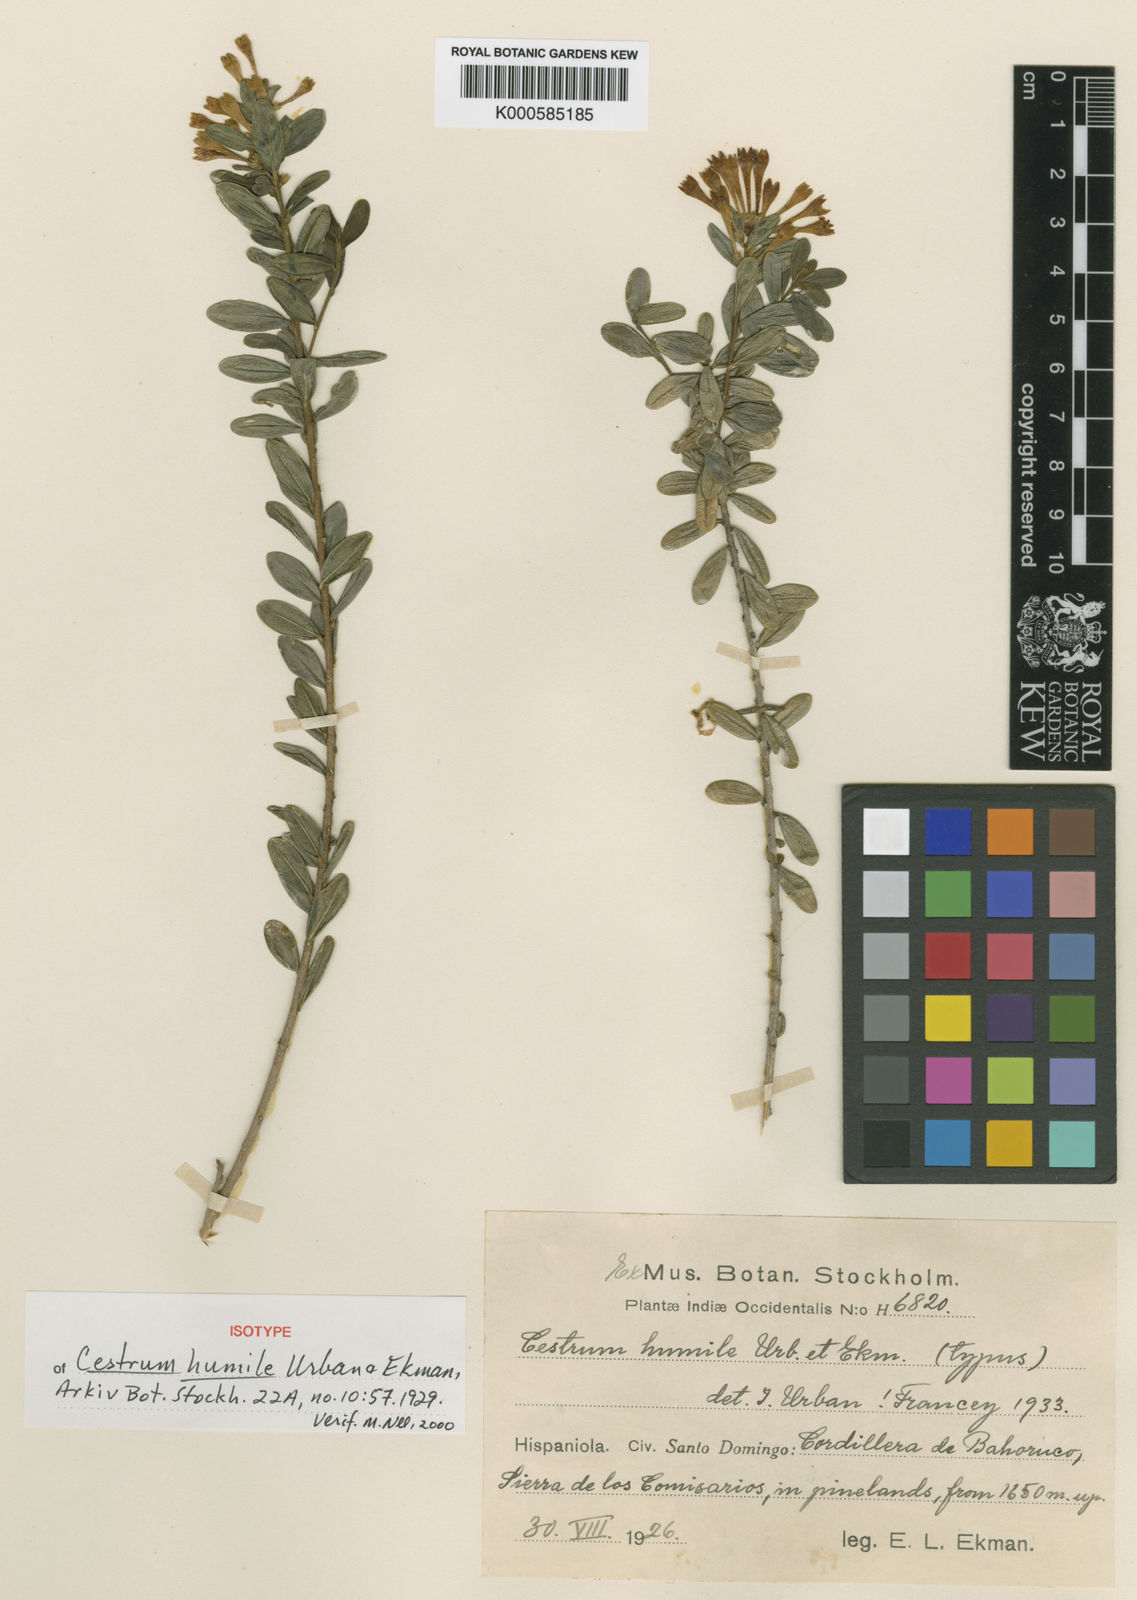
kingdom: Plantae
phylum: Tracheophyta
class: Magnoliopsida
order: Solanales
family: Solanaceae
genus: Cestrum
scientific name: Cestrum humile
